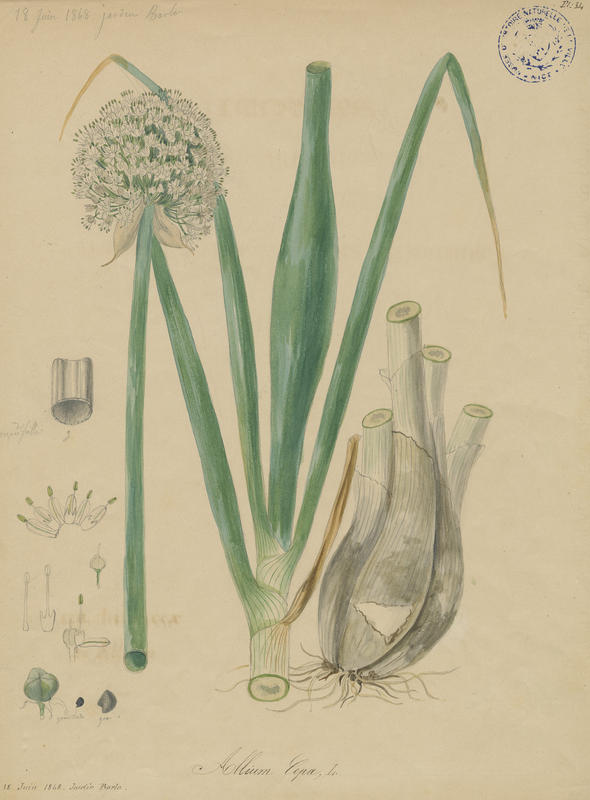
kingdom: Plantae
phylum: Tracheophyta
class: Liliopsida
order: Asparagales
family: Amaryllidaceae
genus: Allium
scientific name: Allium cepa
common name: Onion
